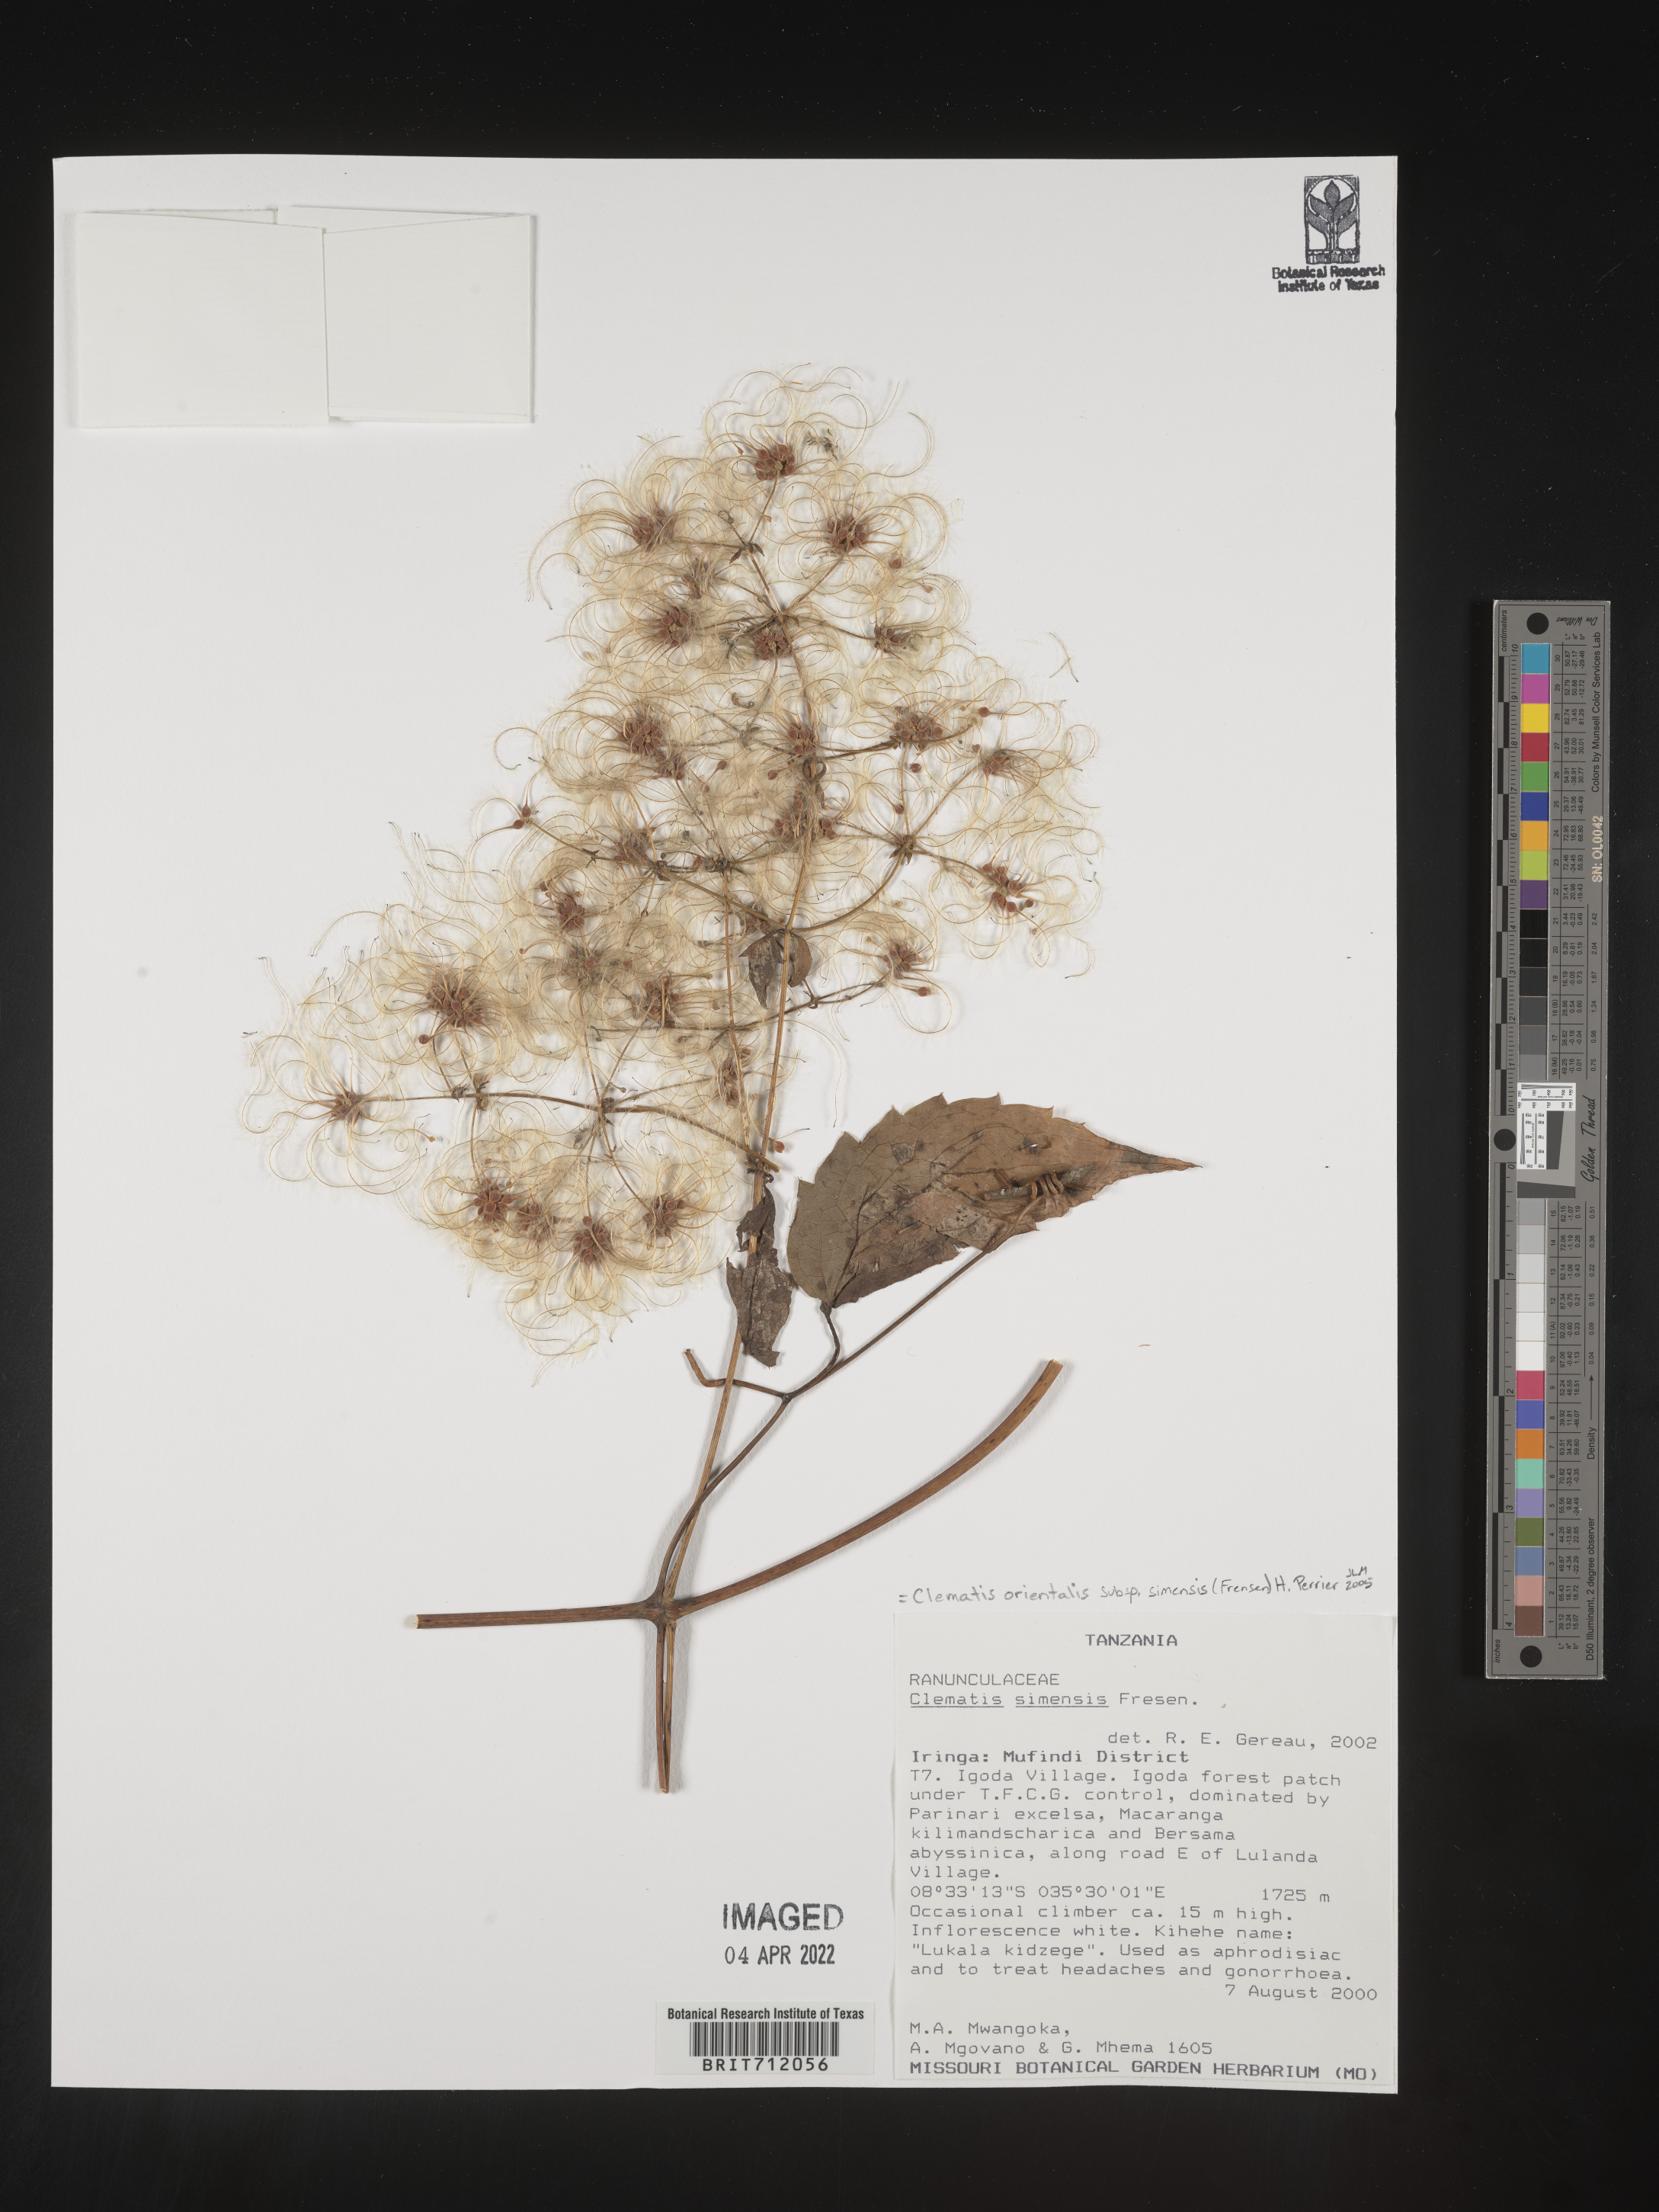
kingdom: Plantae
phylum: Tracheophyta
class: Magnoliopsida
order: Ranunculales
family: Ranunculaceae
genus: Clematis
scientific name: Clematis
